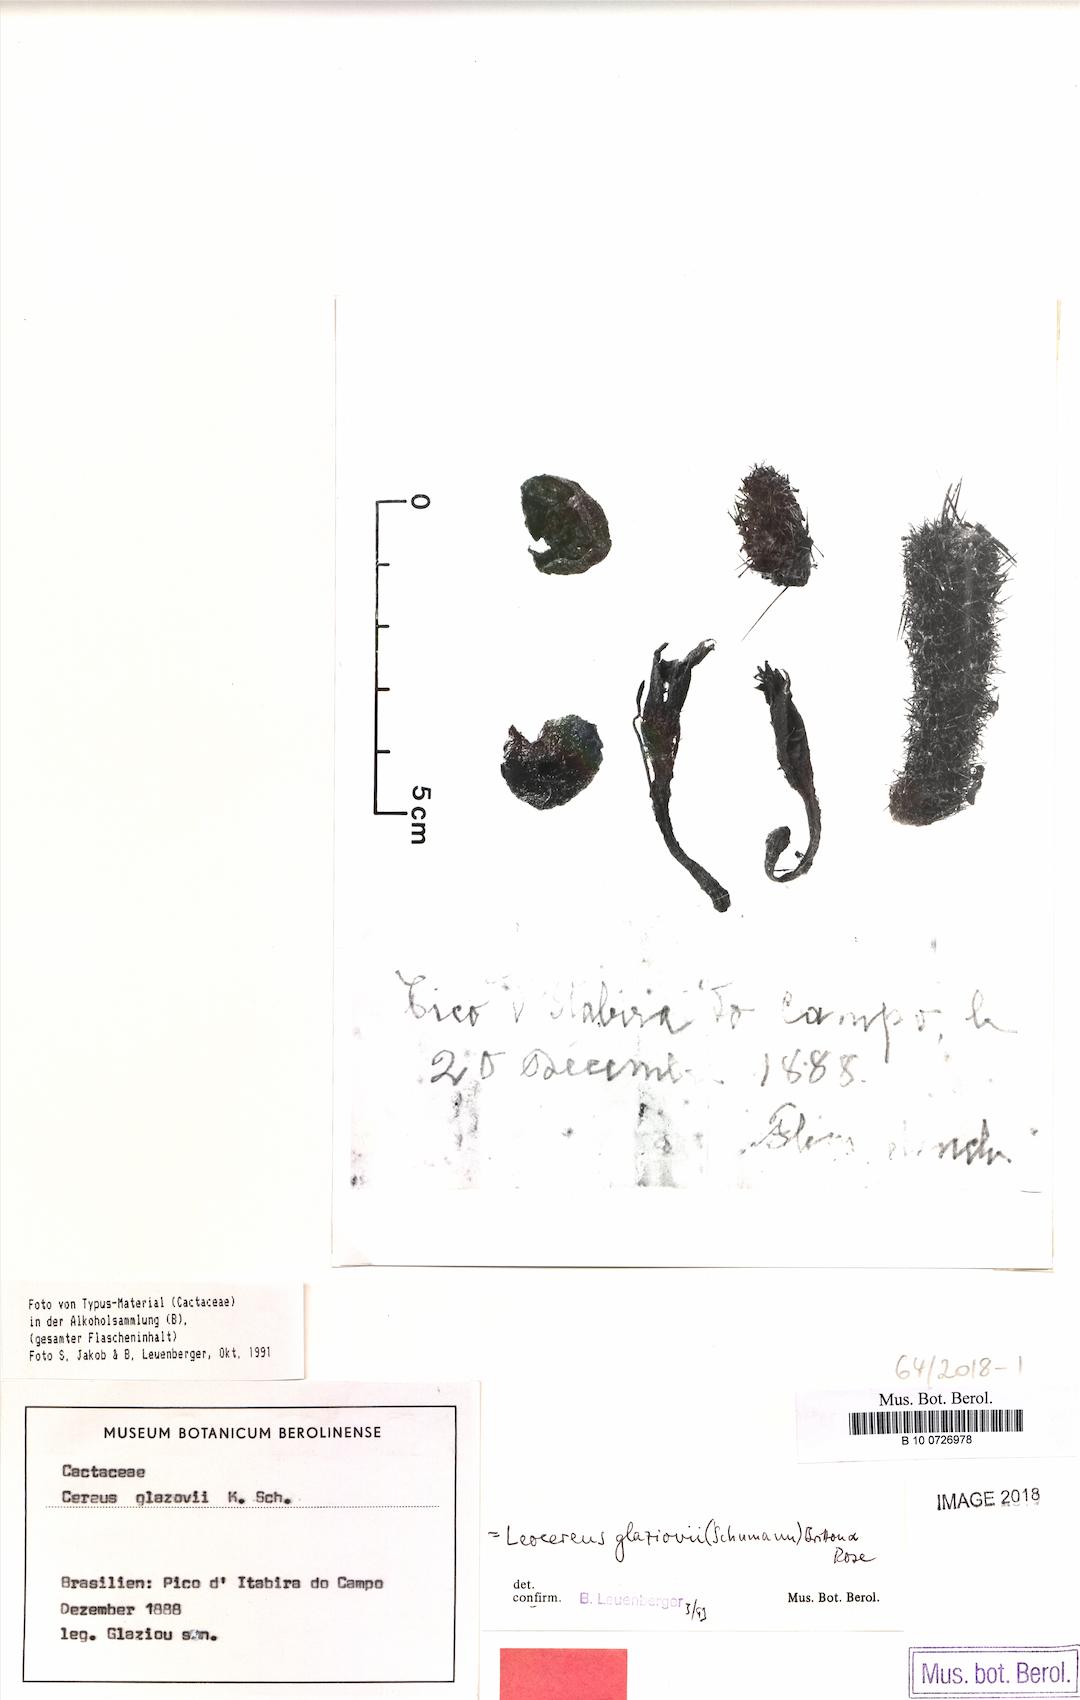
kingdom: Plantae
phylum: Tracheophyta
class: Magnoliopsida
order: Caryophyllales
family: Cactaceae
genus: Arthrocereus
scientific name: Arthrocereus glaziovii
